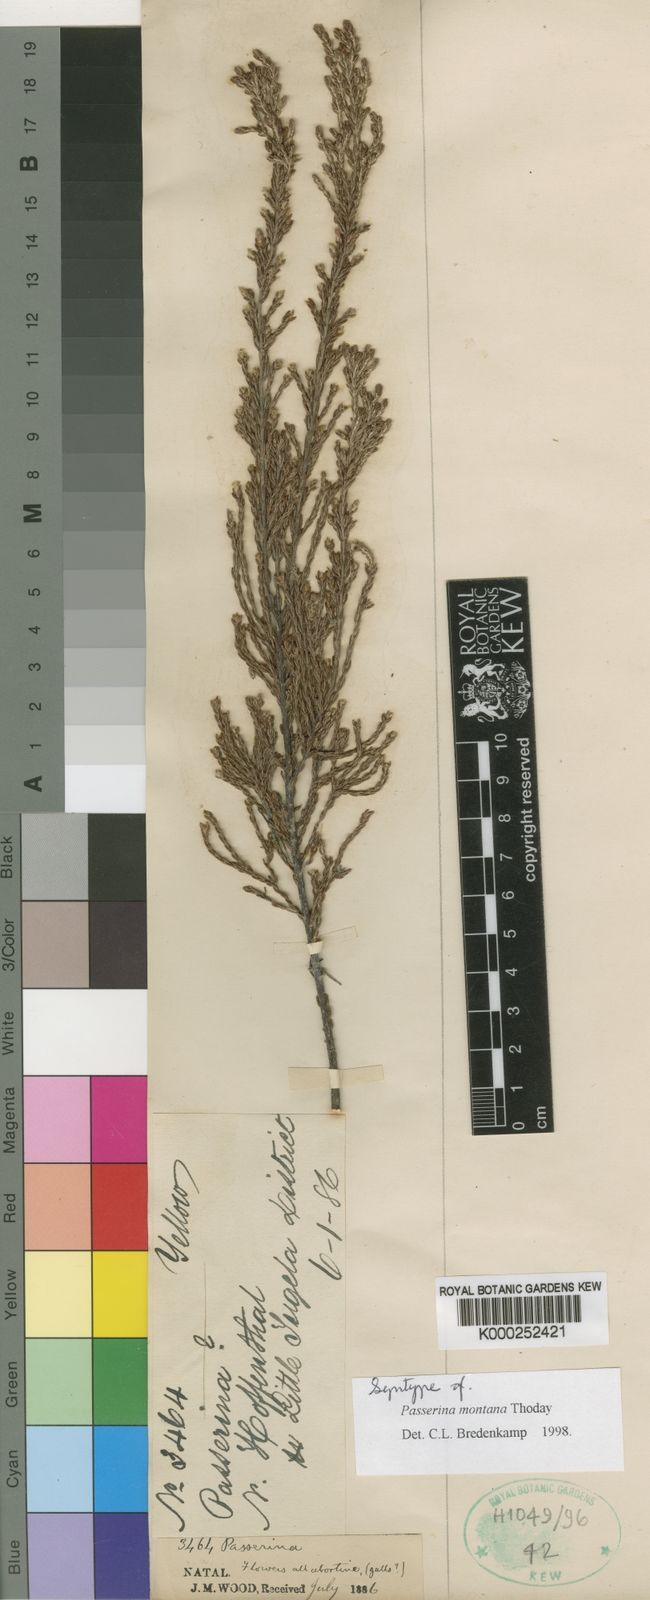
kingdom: Plantae
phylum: Tracheophyta
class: Magnoliopsida
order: Malvales
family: Thymelaeaceae
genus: Passerina
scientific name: Passerina montana
